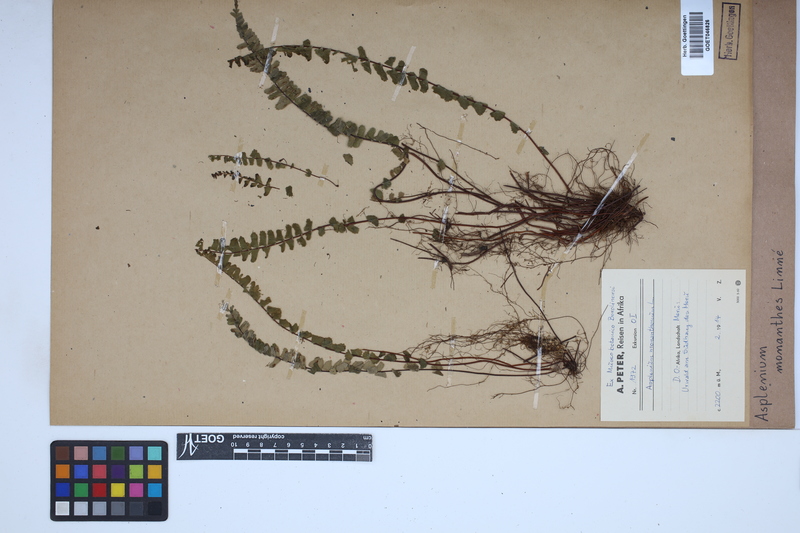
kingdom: Plantae
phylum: Tracheophyta
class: Polypodiopsida
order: Polypodiales
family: Aspleniaceae
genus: Asplenium
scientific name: Asplenium monanthes
